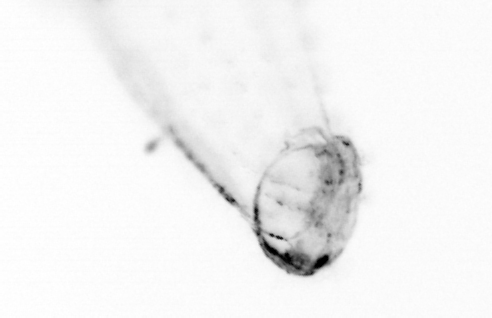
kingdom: Animalia
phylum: Chaetognatha
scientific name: Chaetognatha
